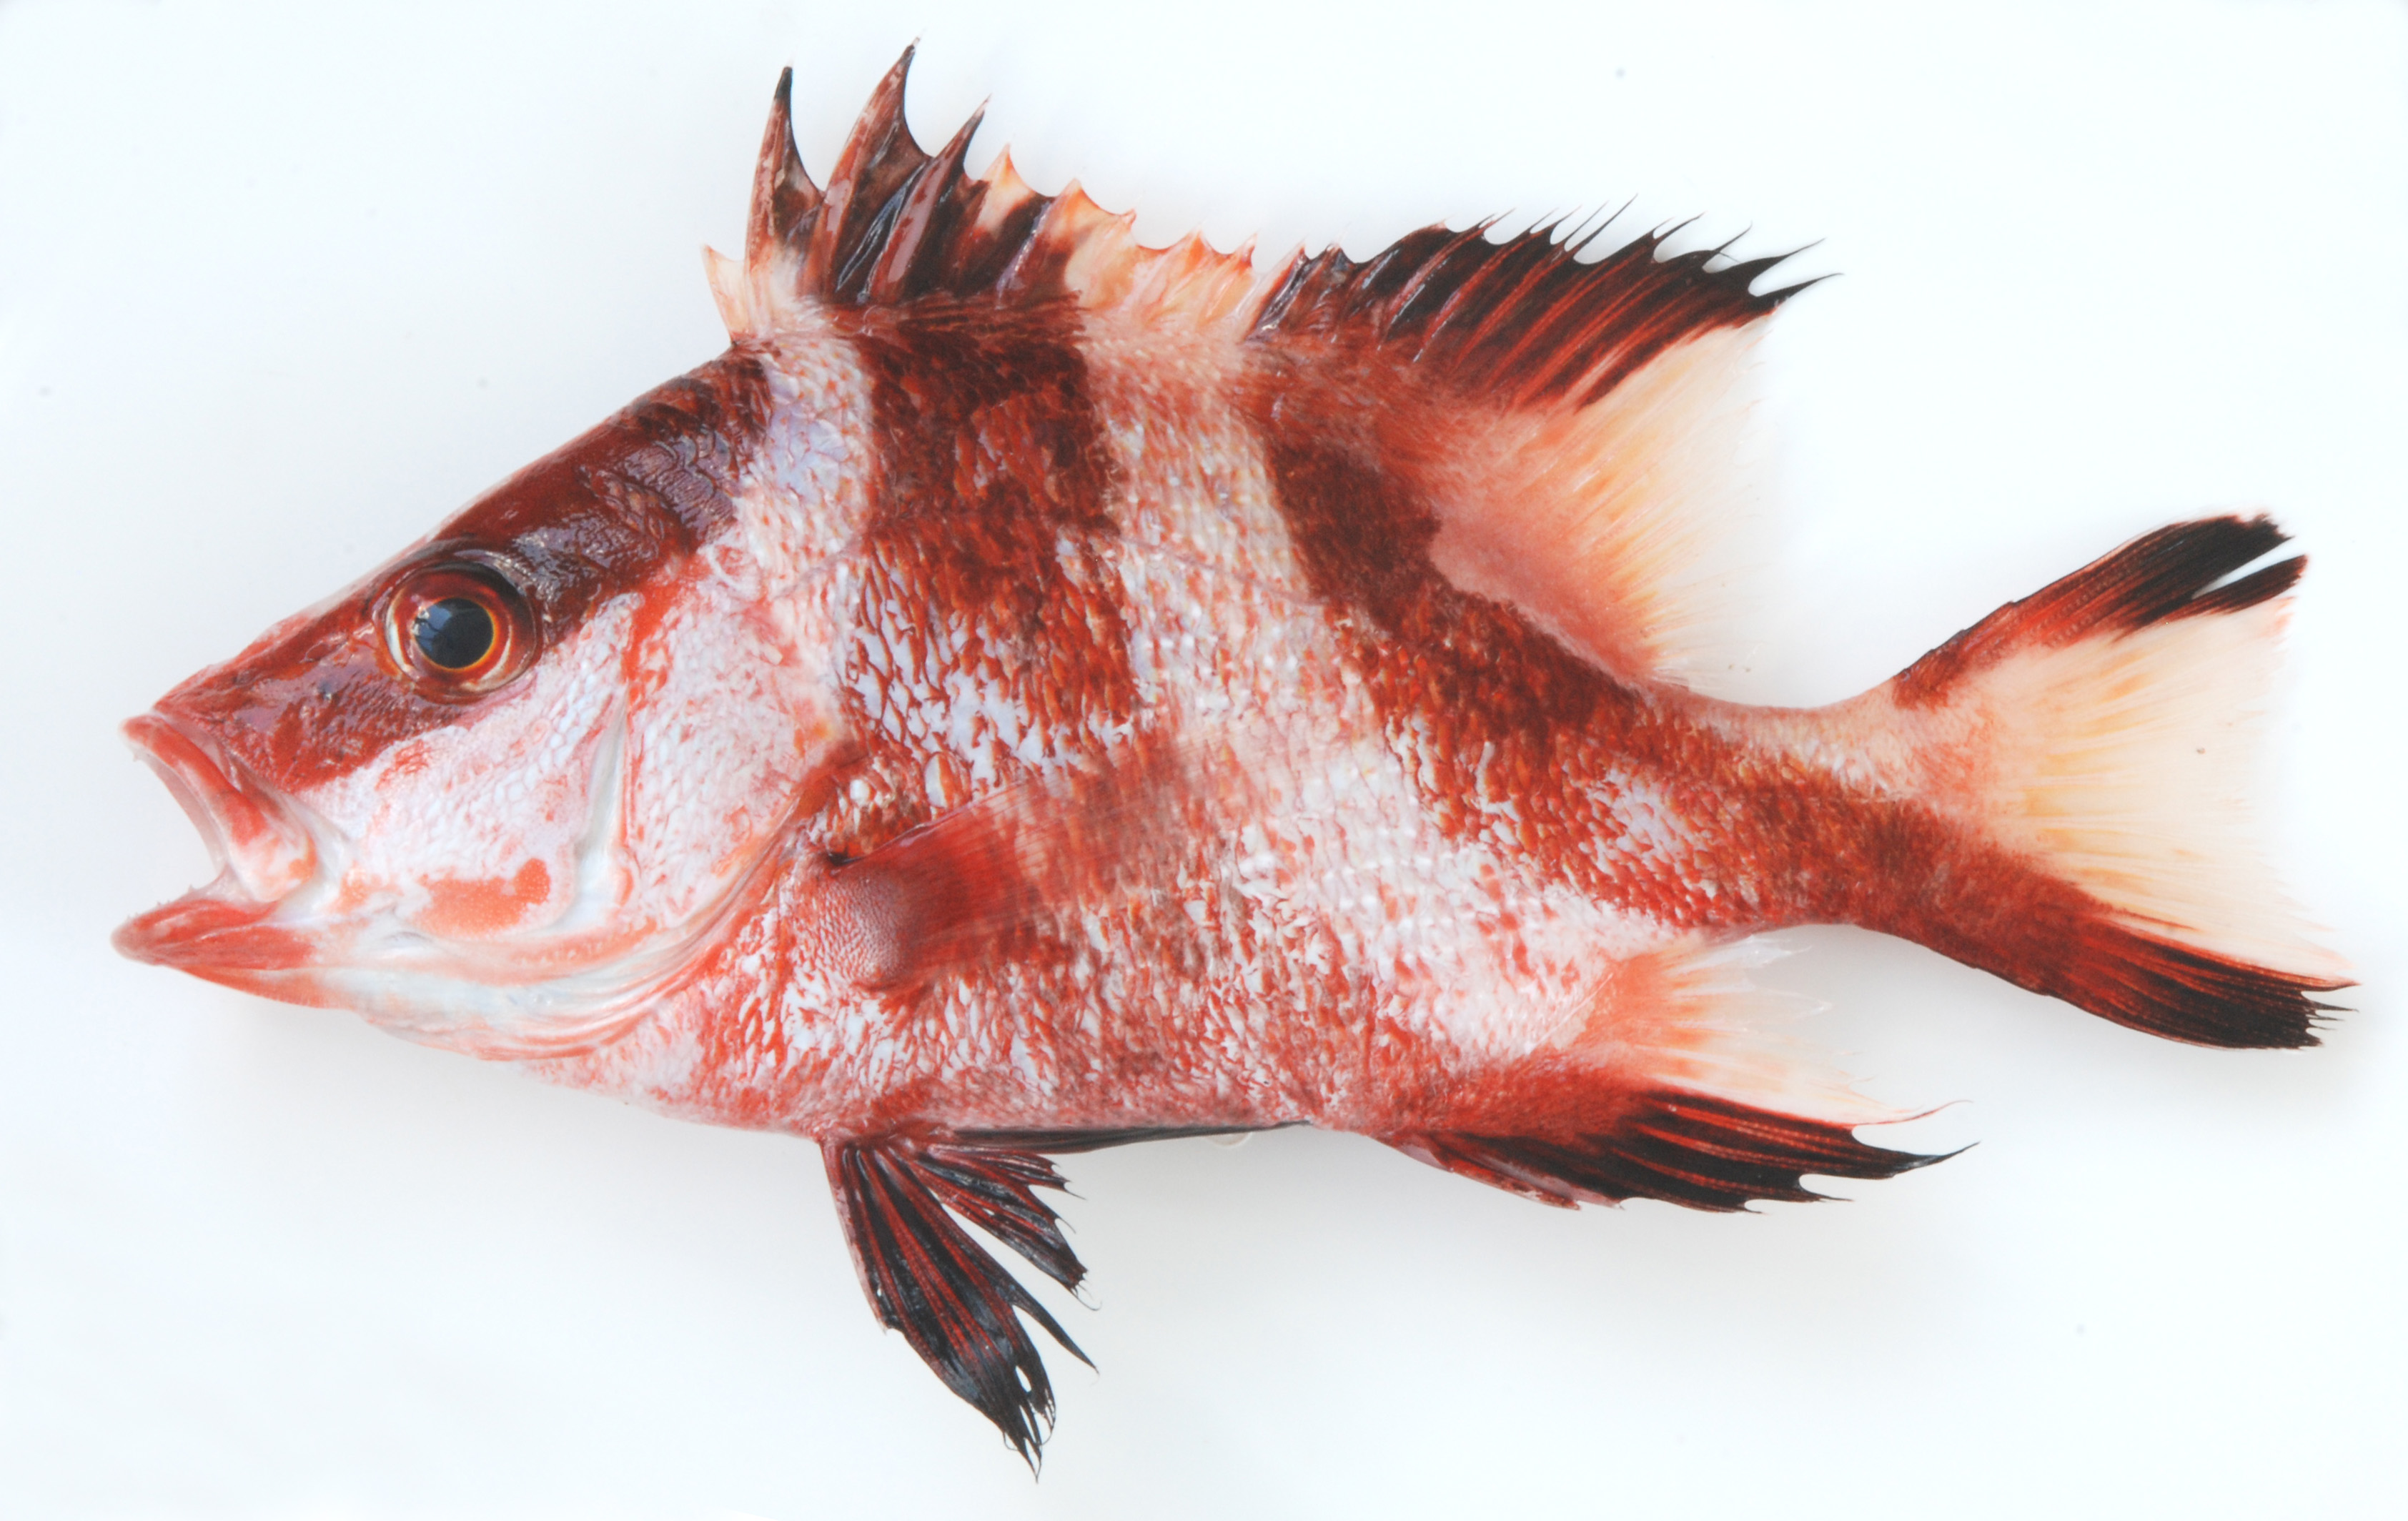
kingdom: Animalia
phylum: Chordata
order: Perciformes
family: Lutjanidae
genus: Lutjanus
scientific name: Lutjanus sebae
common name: Emperor red snapper
